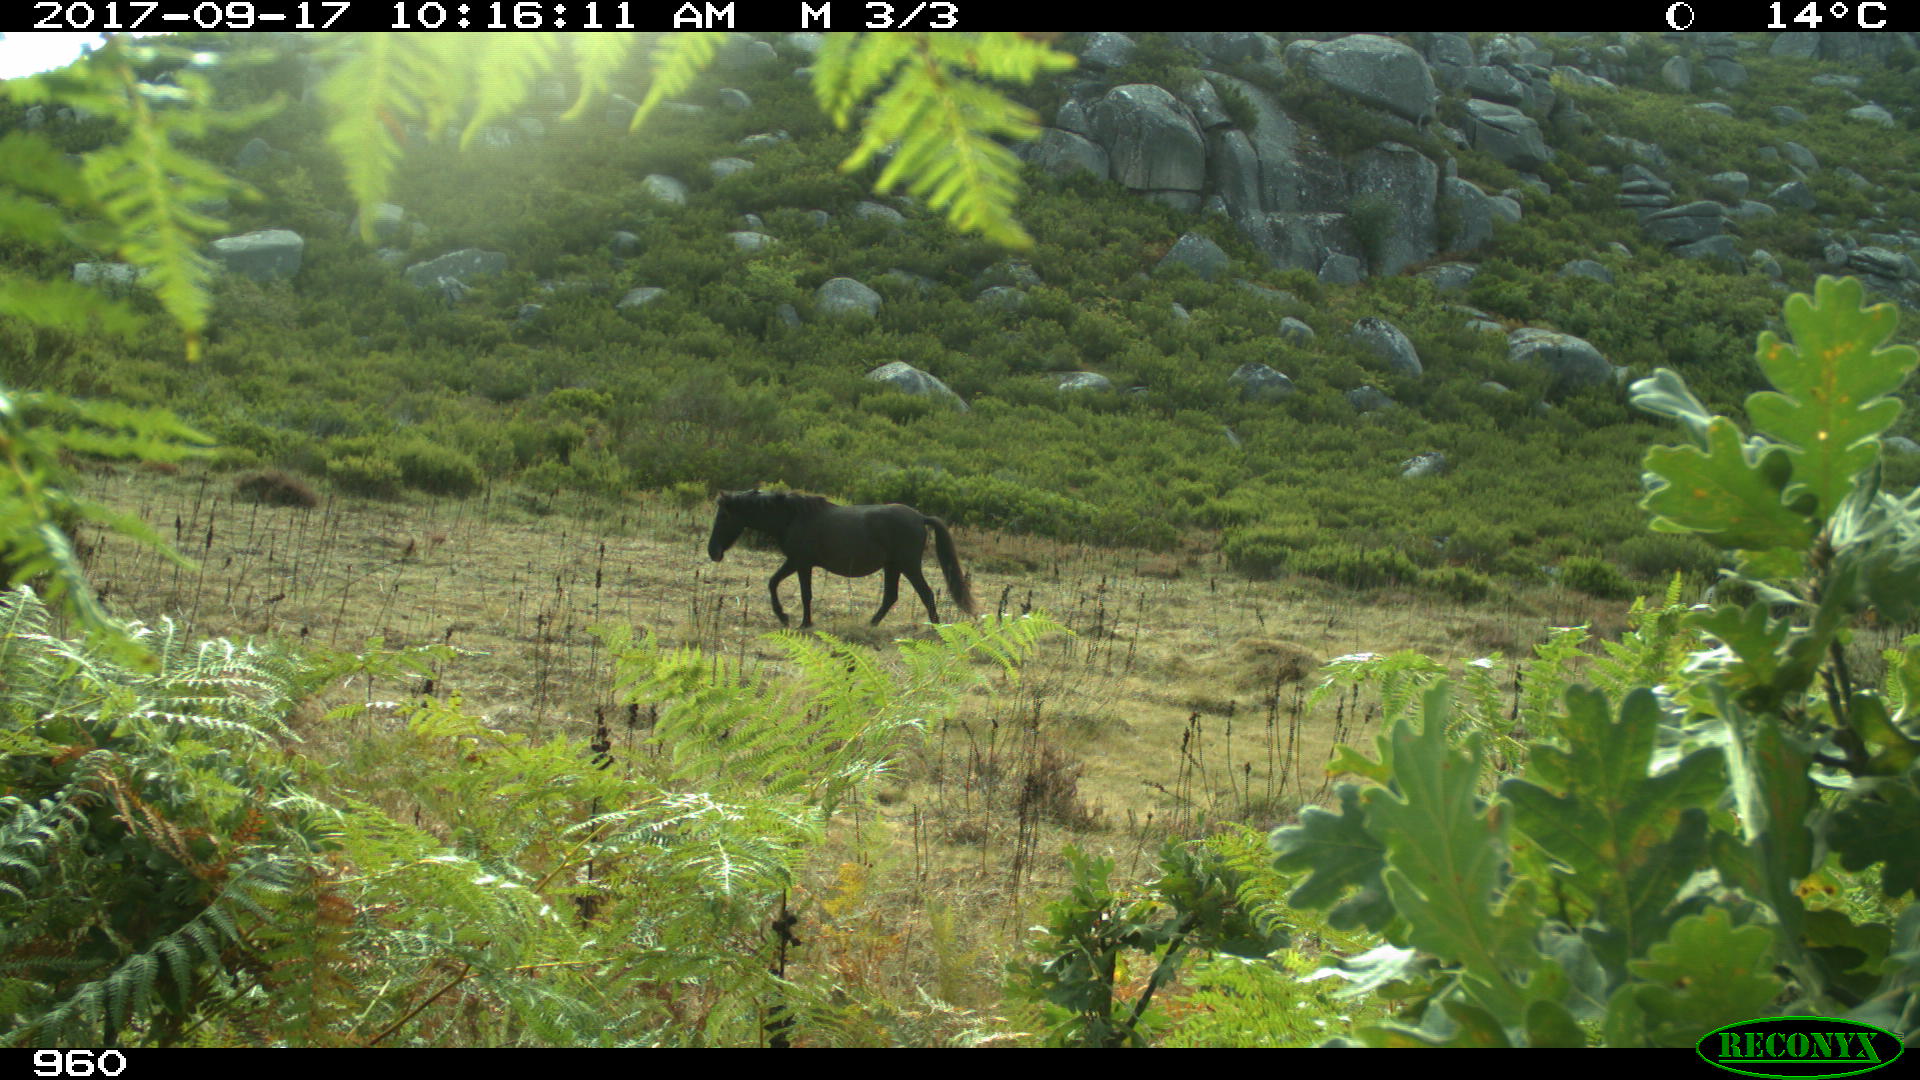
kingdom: Animalia
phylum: Chordata
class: Mammalia
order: Perissodactyla
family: Equidae
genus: Equus
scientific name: Equus caballus
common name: Horse
